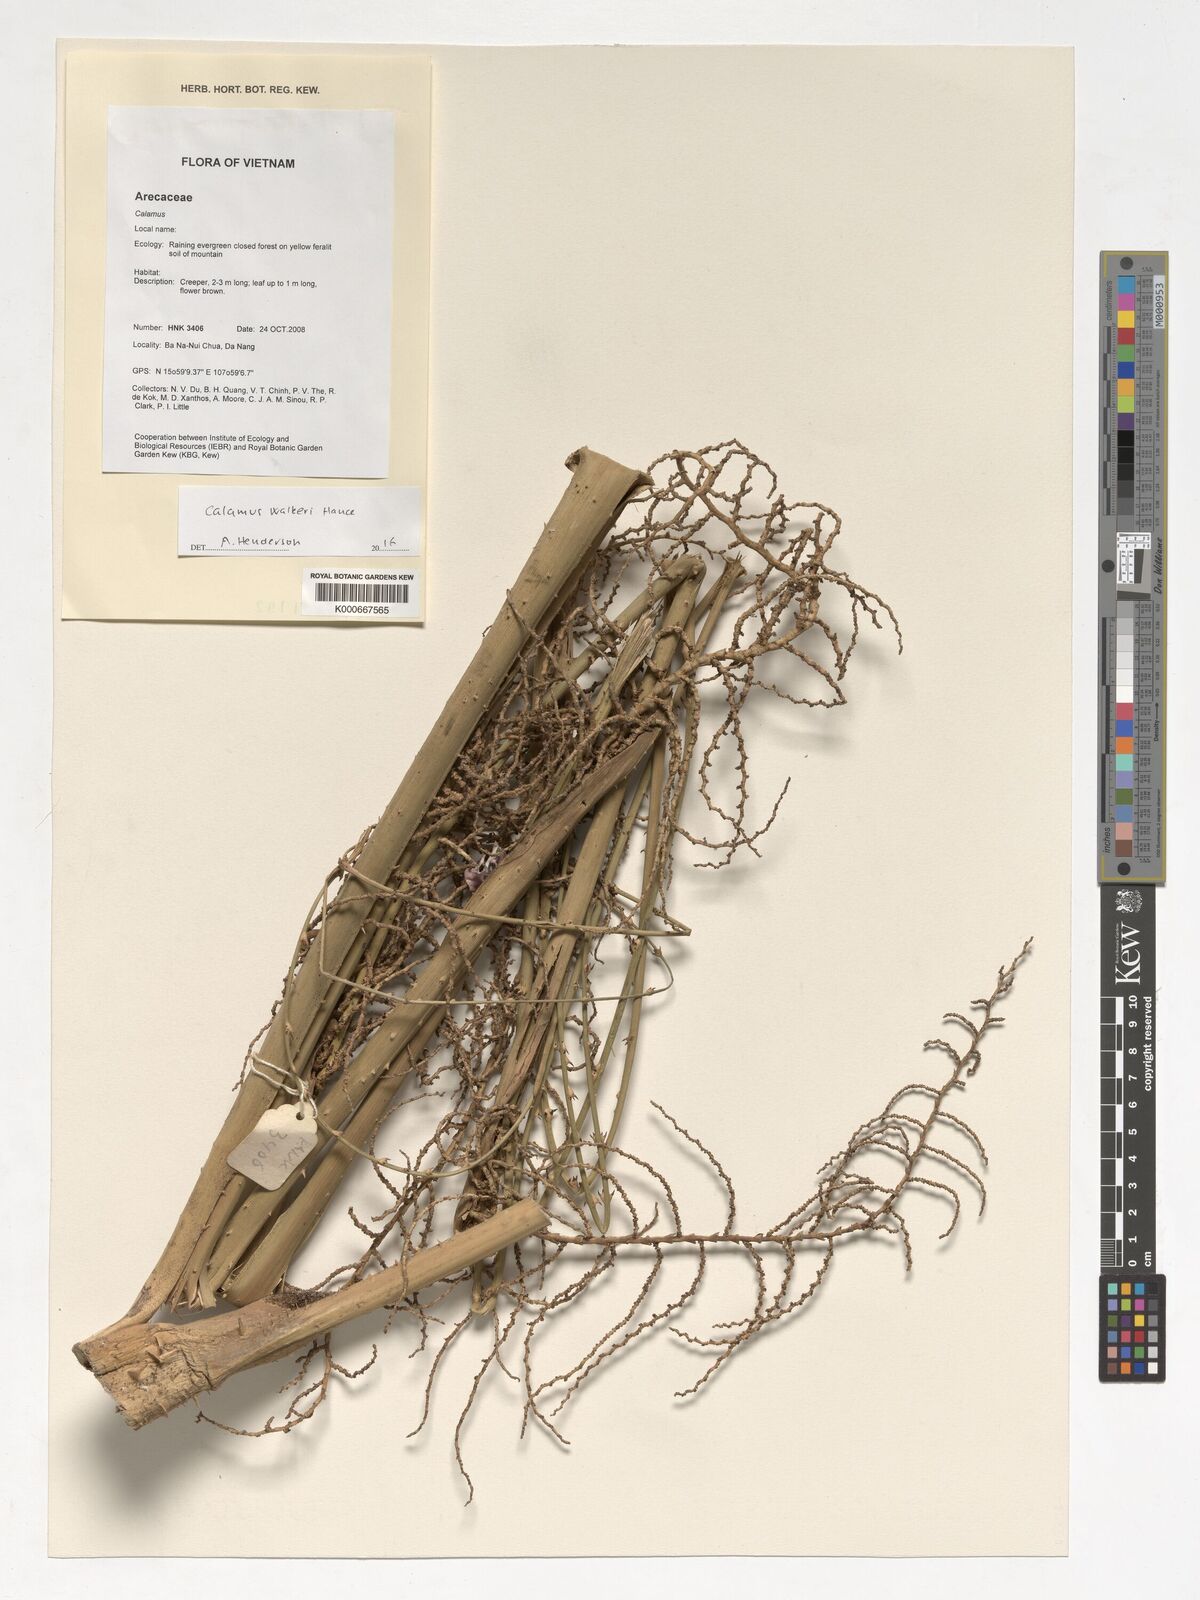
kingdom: Plantae
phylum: Tracheophyta
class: Liliopsida
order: Arecales
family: Arecaceae
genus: Calamus
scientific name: Calamus walkeri
